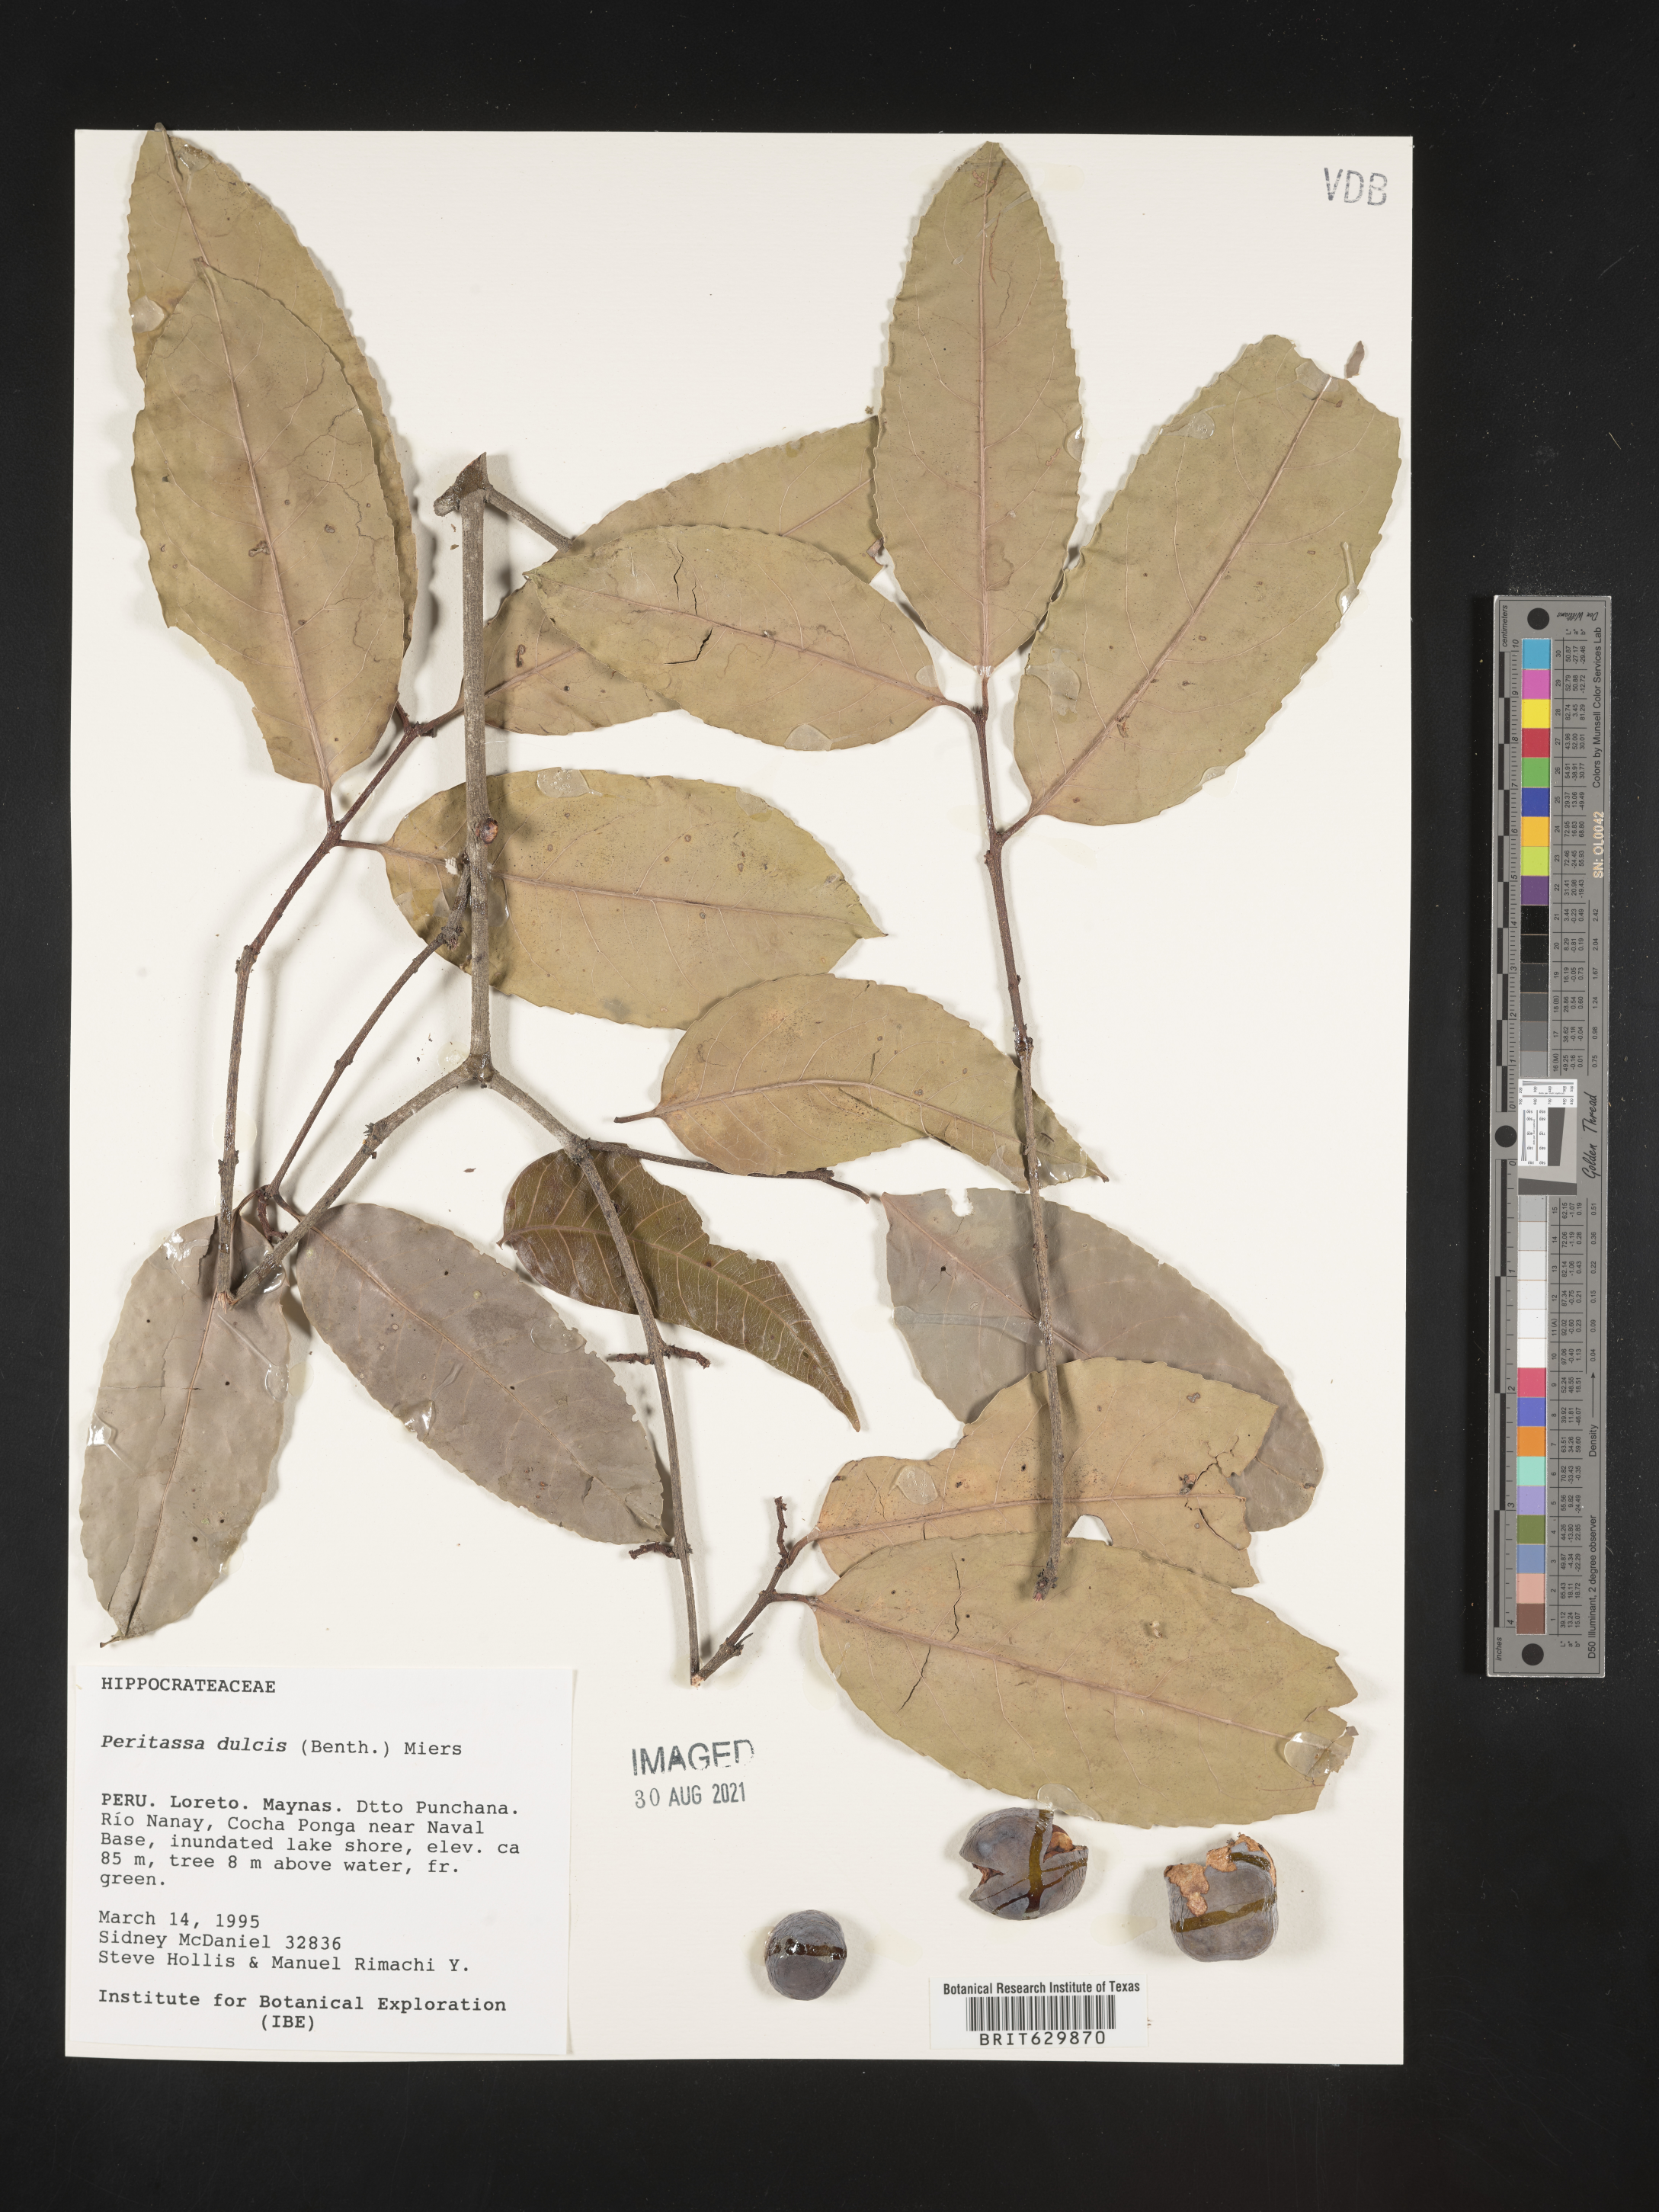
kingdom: Plantae
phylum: Tracheophyta
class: Magnoliopsida
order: Celastrales
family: Celastraceae
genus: Peritassa
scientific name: Peritassa dulcis
